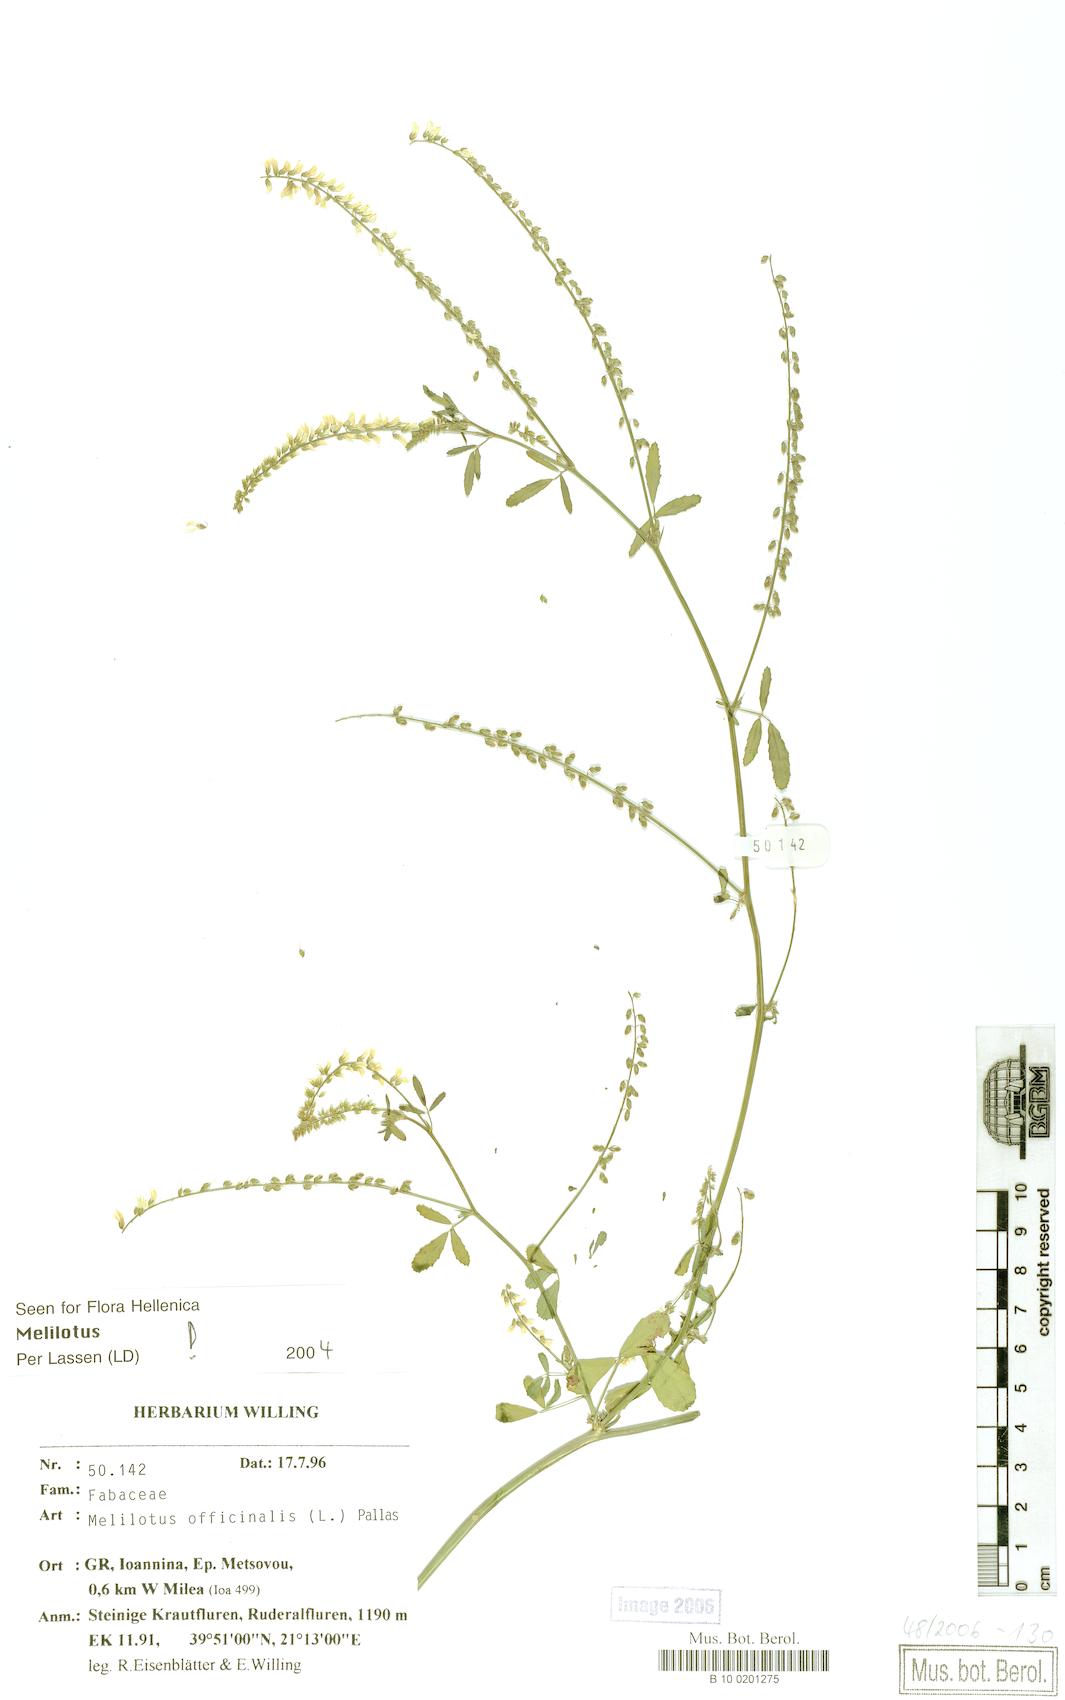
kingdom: Plantae
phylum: Tracheophyta
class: Magnoliopsida
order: Fabales
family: Fabaceae
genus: Melilotus
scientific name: Melilotus officinalis
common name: Sweetclover
